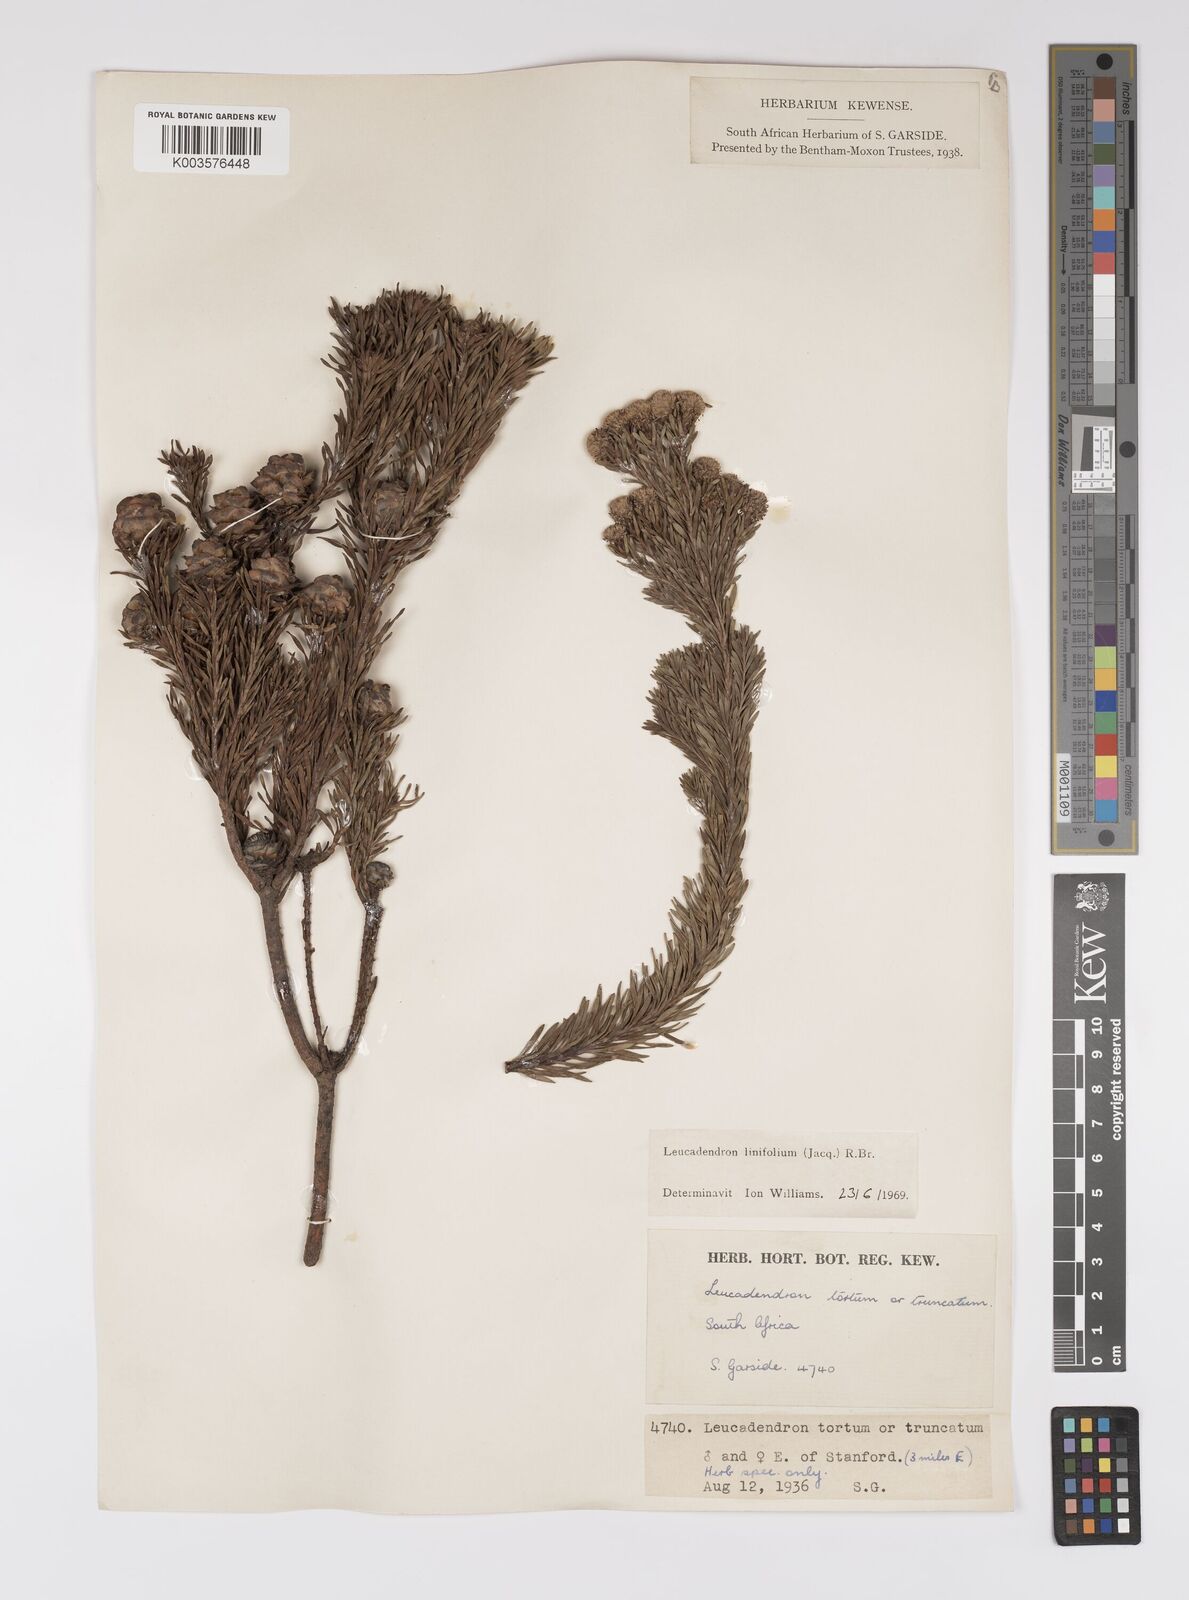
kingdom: Plantae
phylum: Tracheophyta
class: Magnoliopsida
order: Proteales
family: Proteaceae
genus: Leucadendron
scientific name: Leucadendron linifolium
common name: Line-leaf conebush
